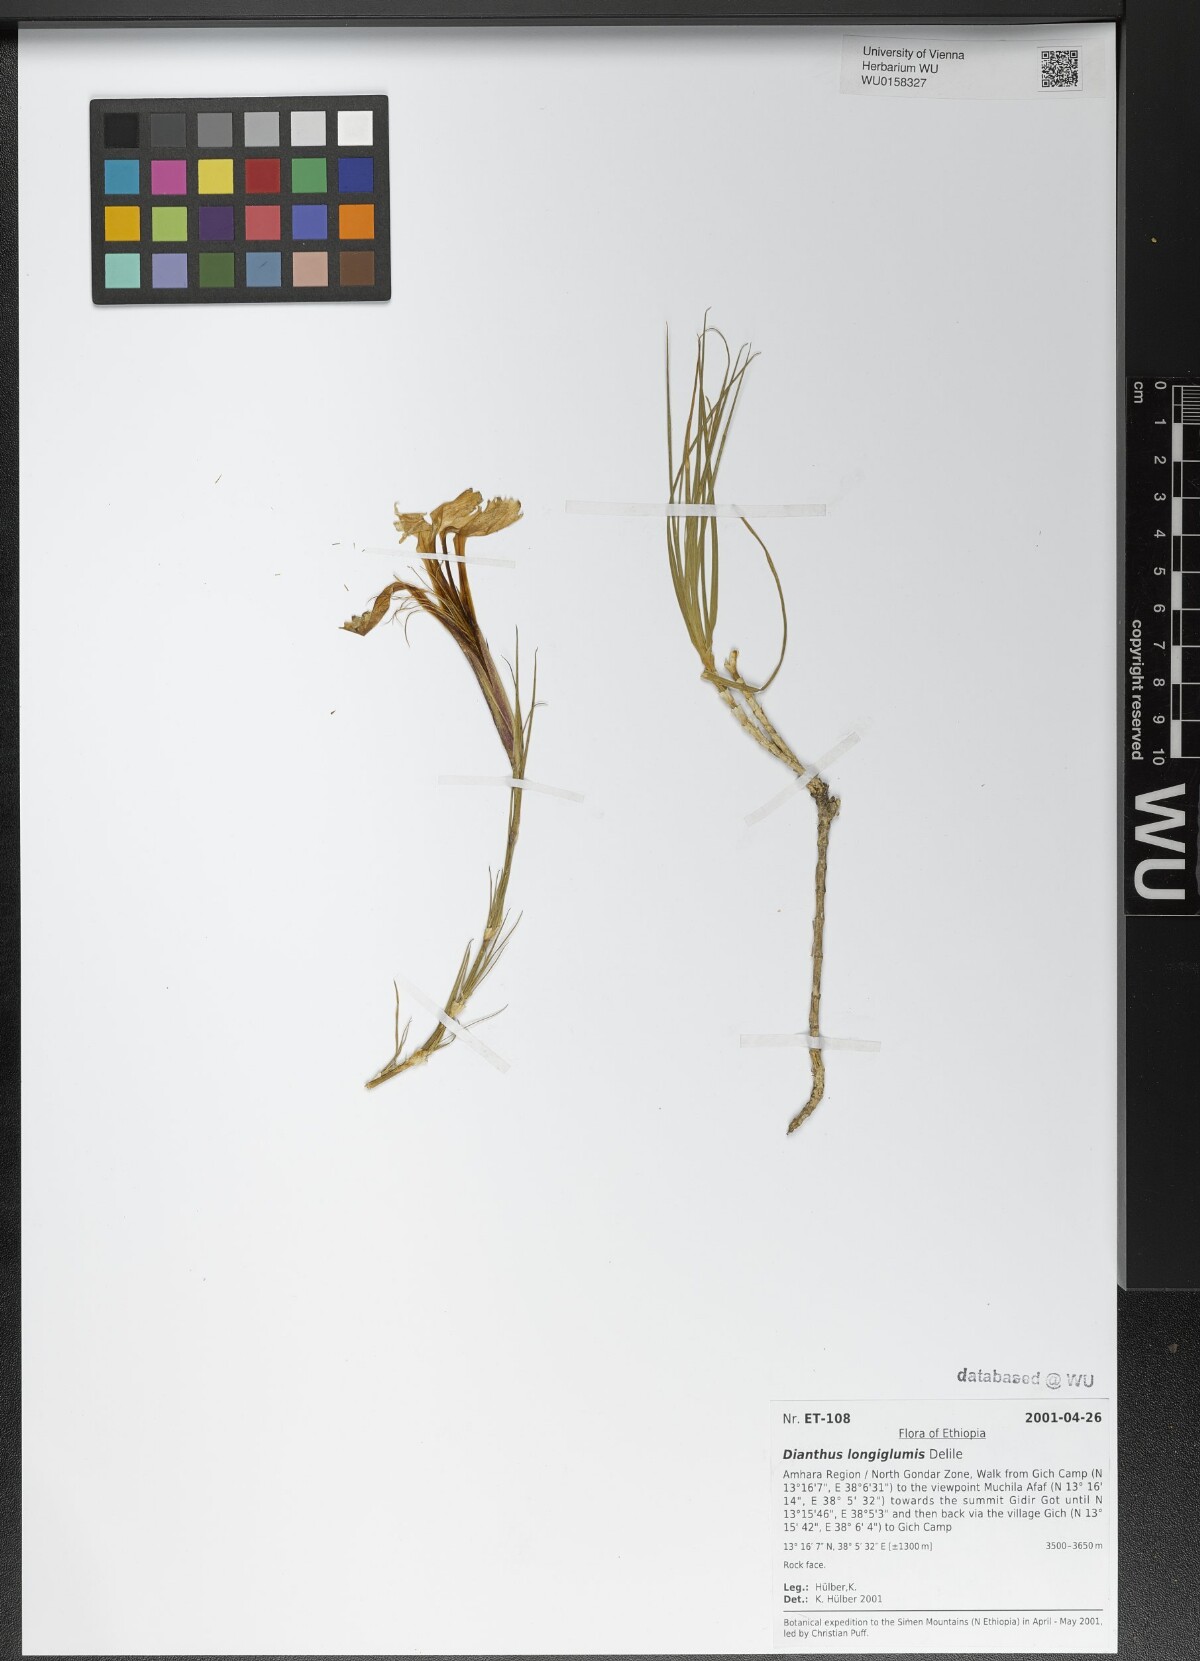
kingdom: Plantae
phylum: Tracheophyta
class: Magnoliopsida
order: Caryophyllales
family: Caryophyllaceae
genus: Dianthus
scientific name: Dianthus longiglumis
